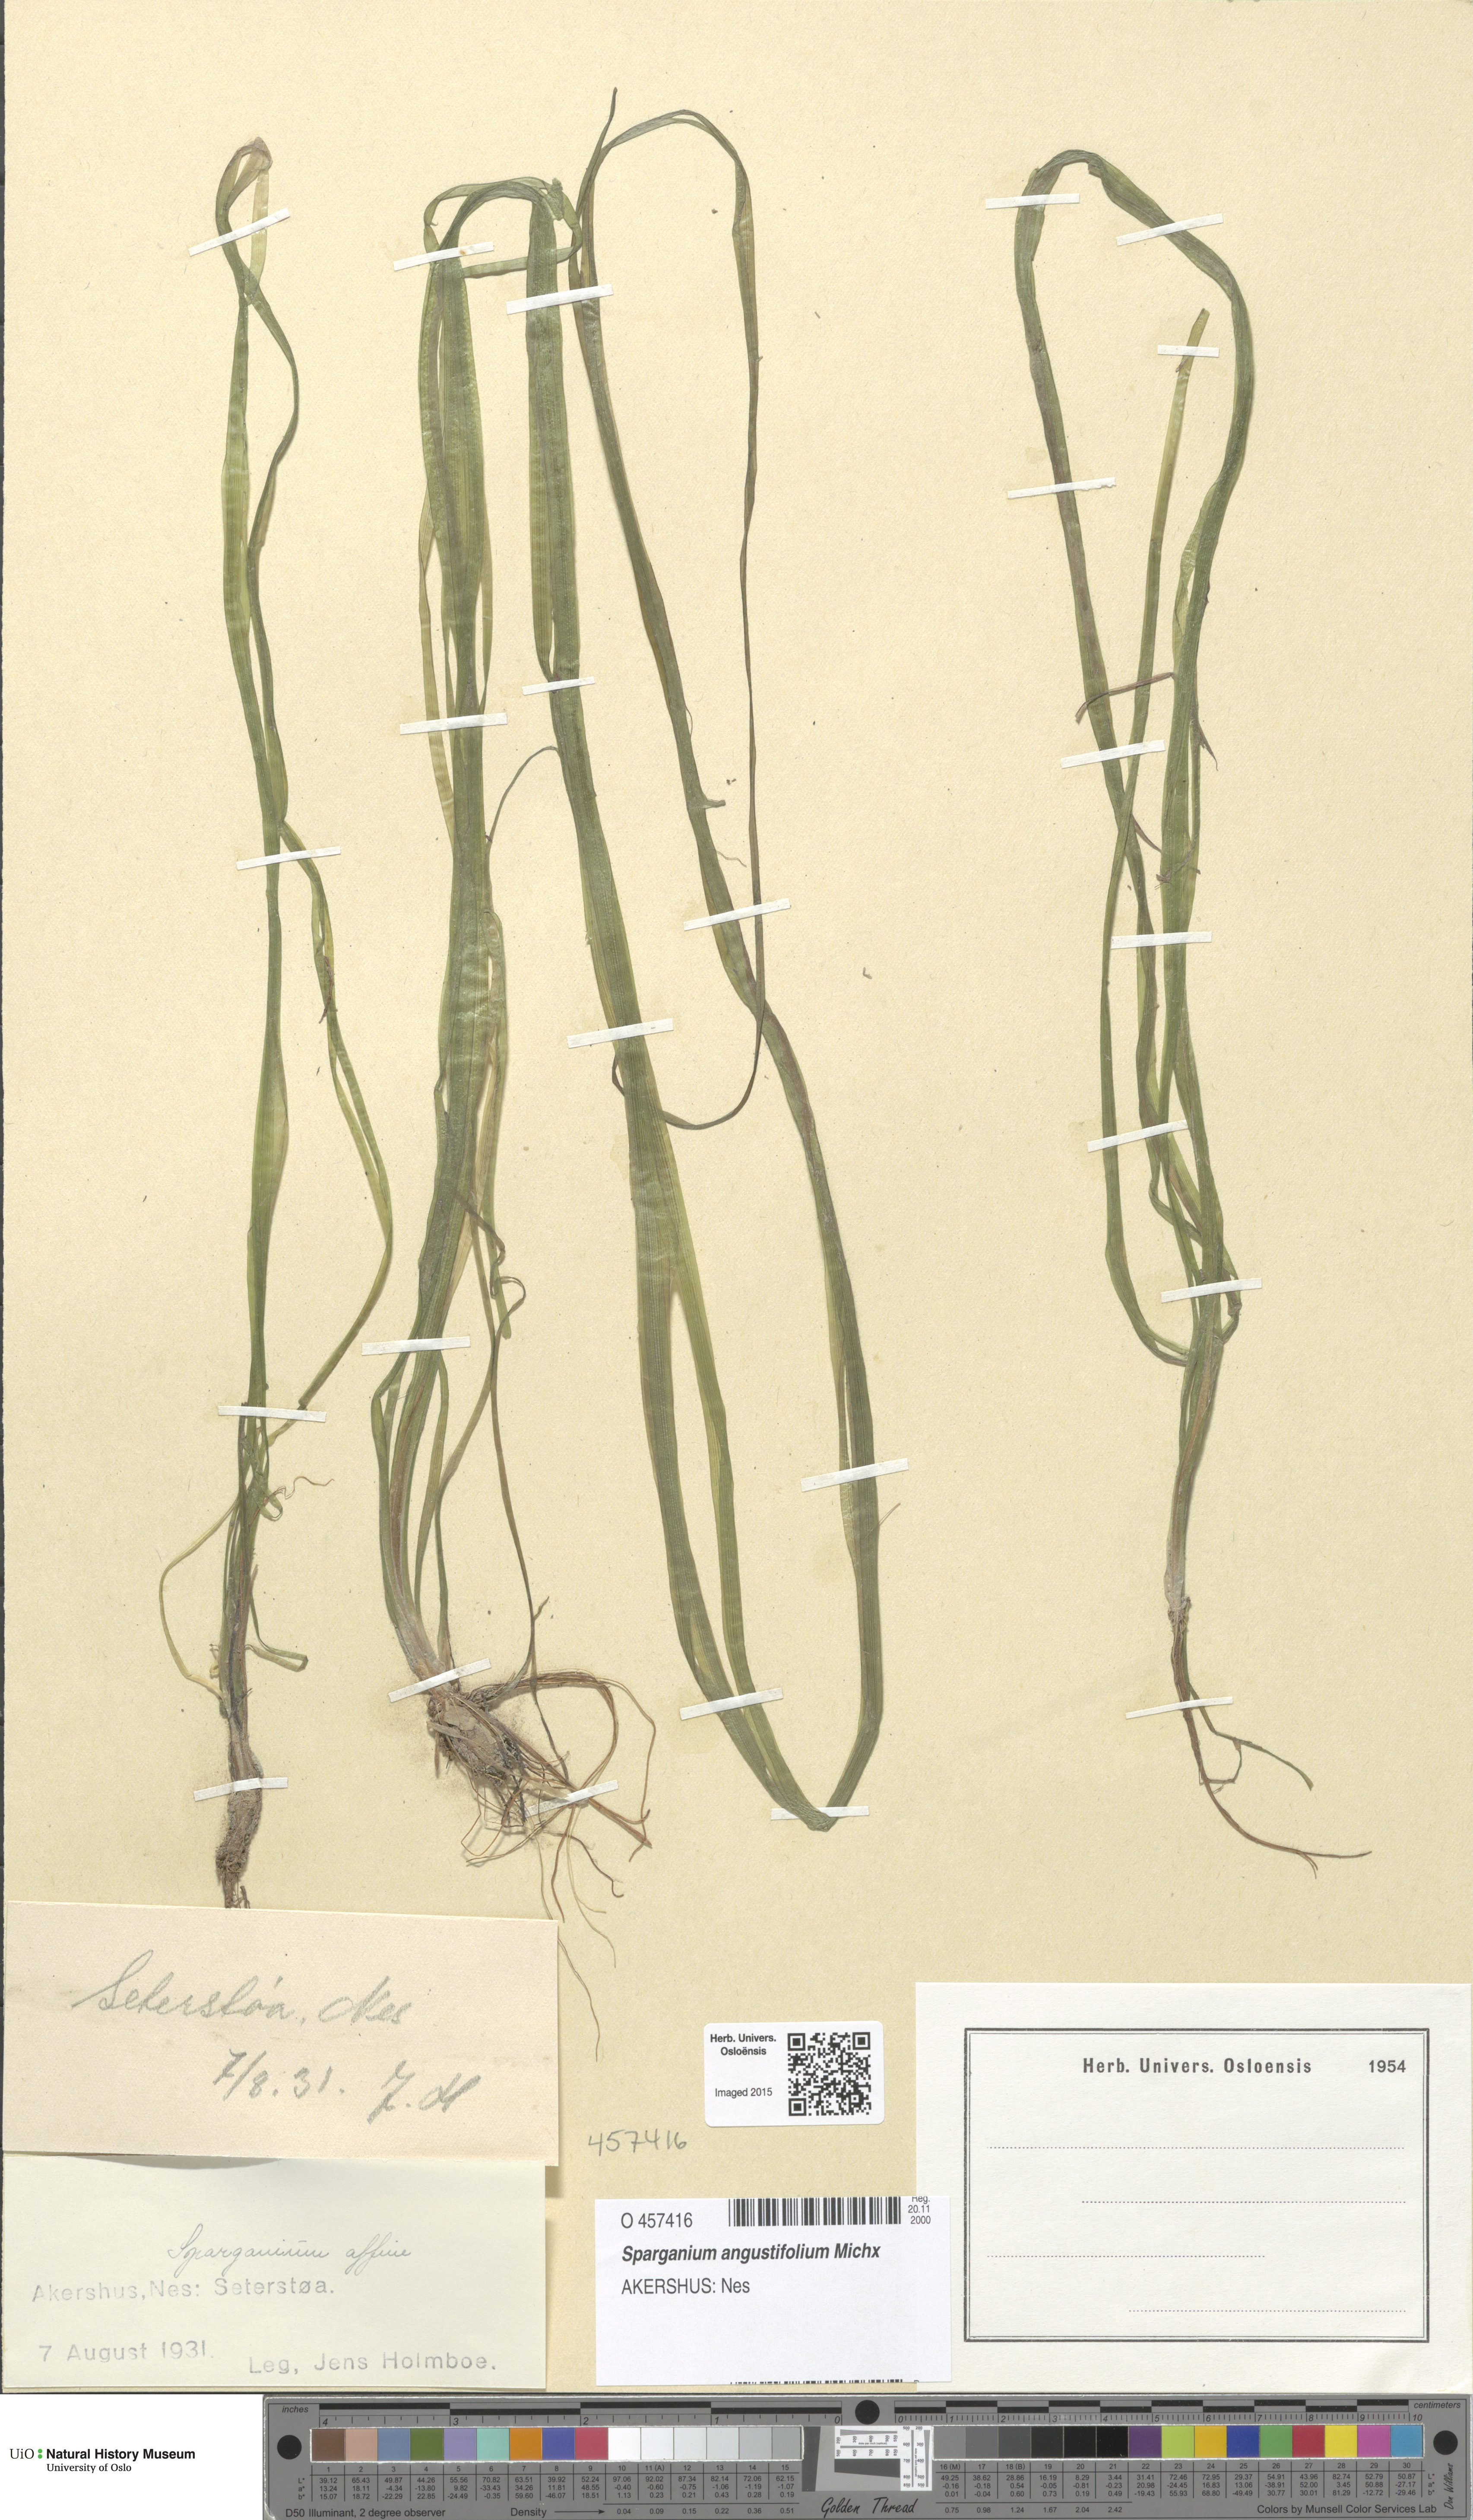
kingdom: Plantae
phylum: Tracheophyta
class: Liliopsida
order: Poales
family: Typhaceae
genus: Sparganium
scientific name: Sparganium angustifolium
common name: Floating bur-reed
